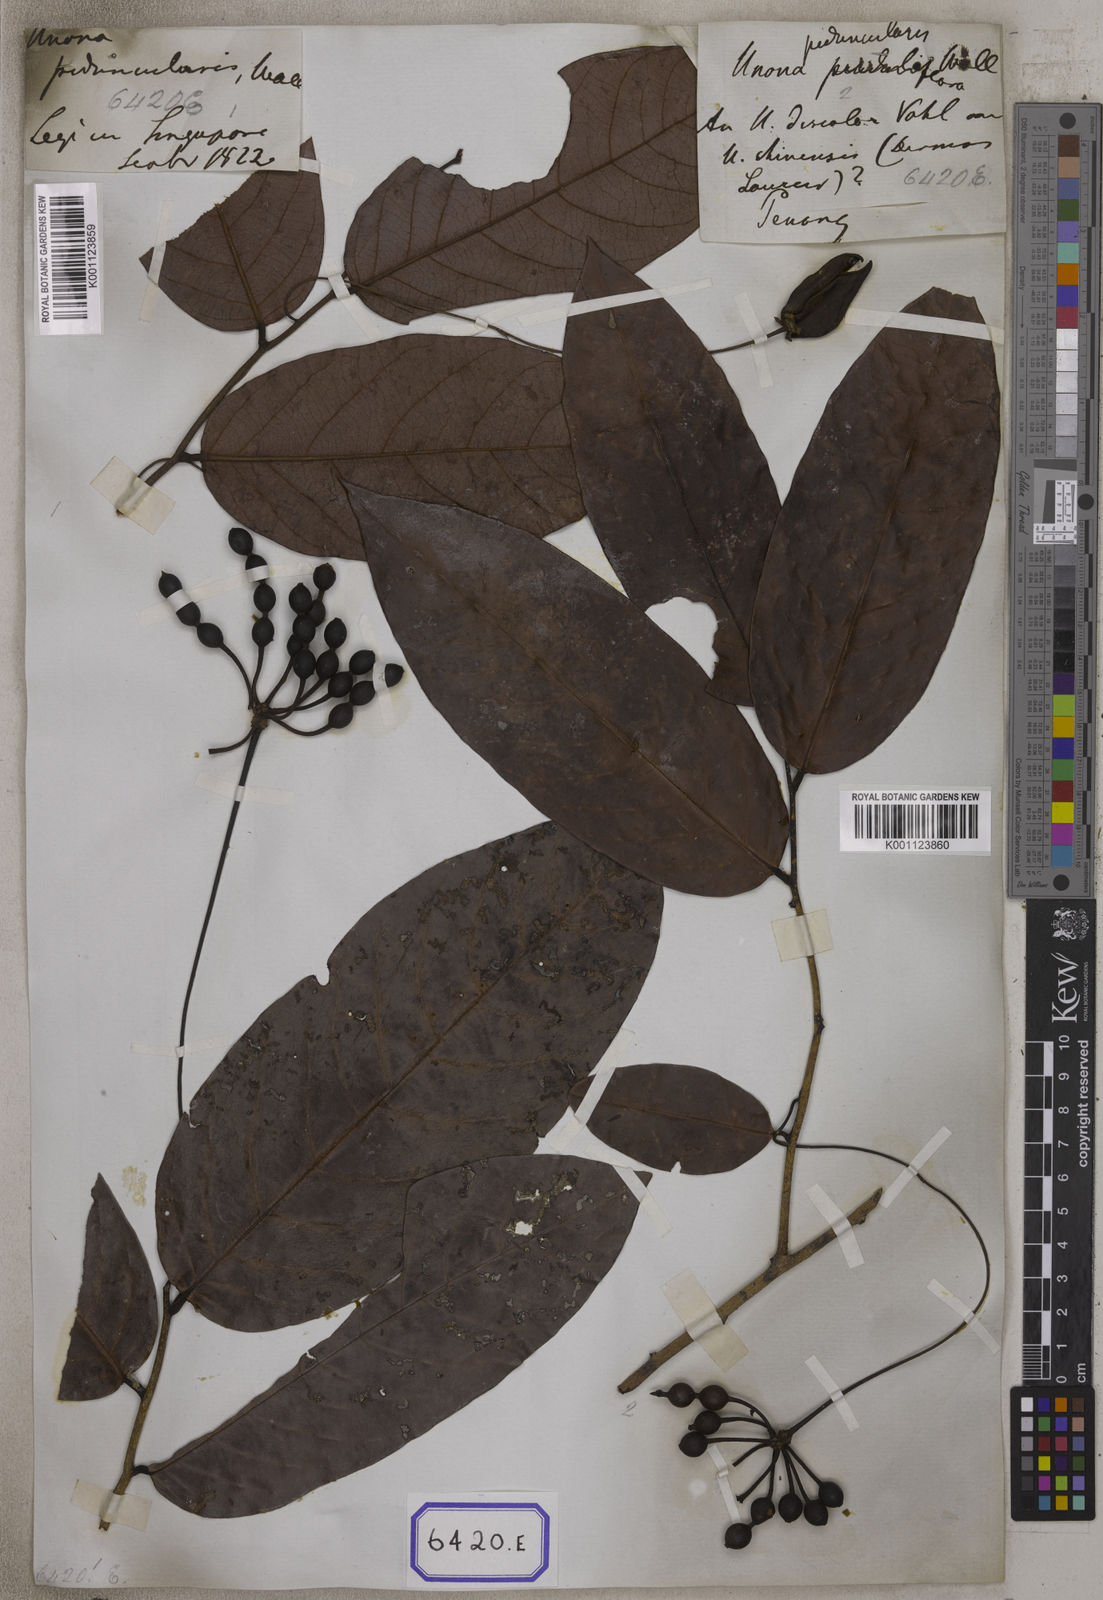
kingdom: Plantae
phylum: Tracheophyta
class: Magnoliopsida
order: Magnoliales
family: Annonaceae
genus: Desmos
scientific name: Desmos chinensis
